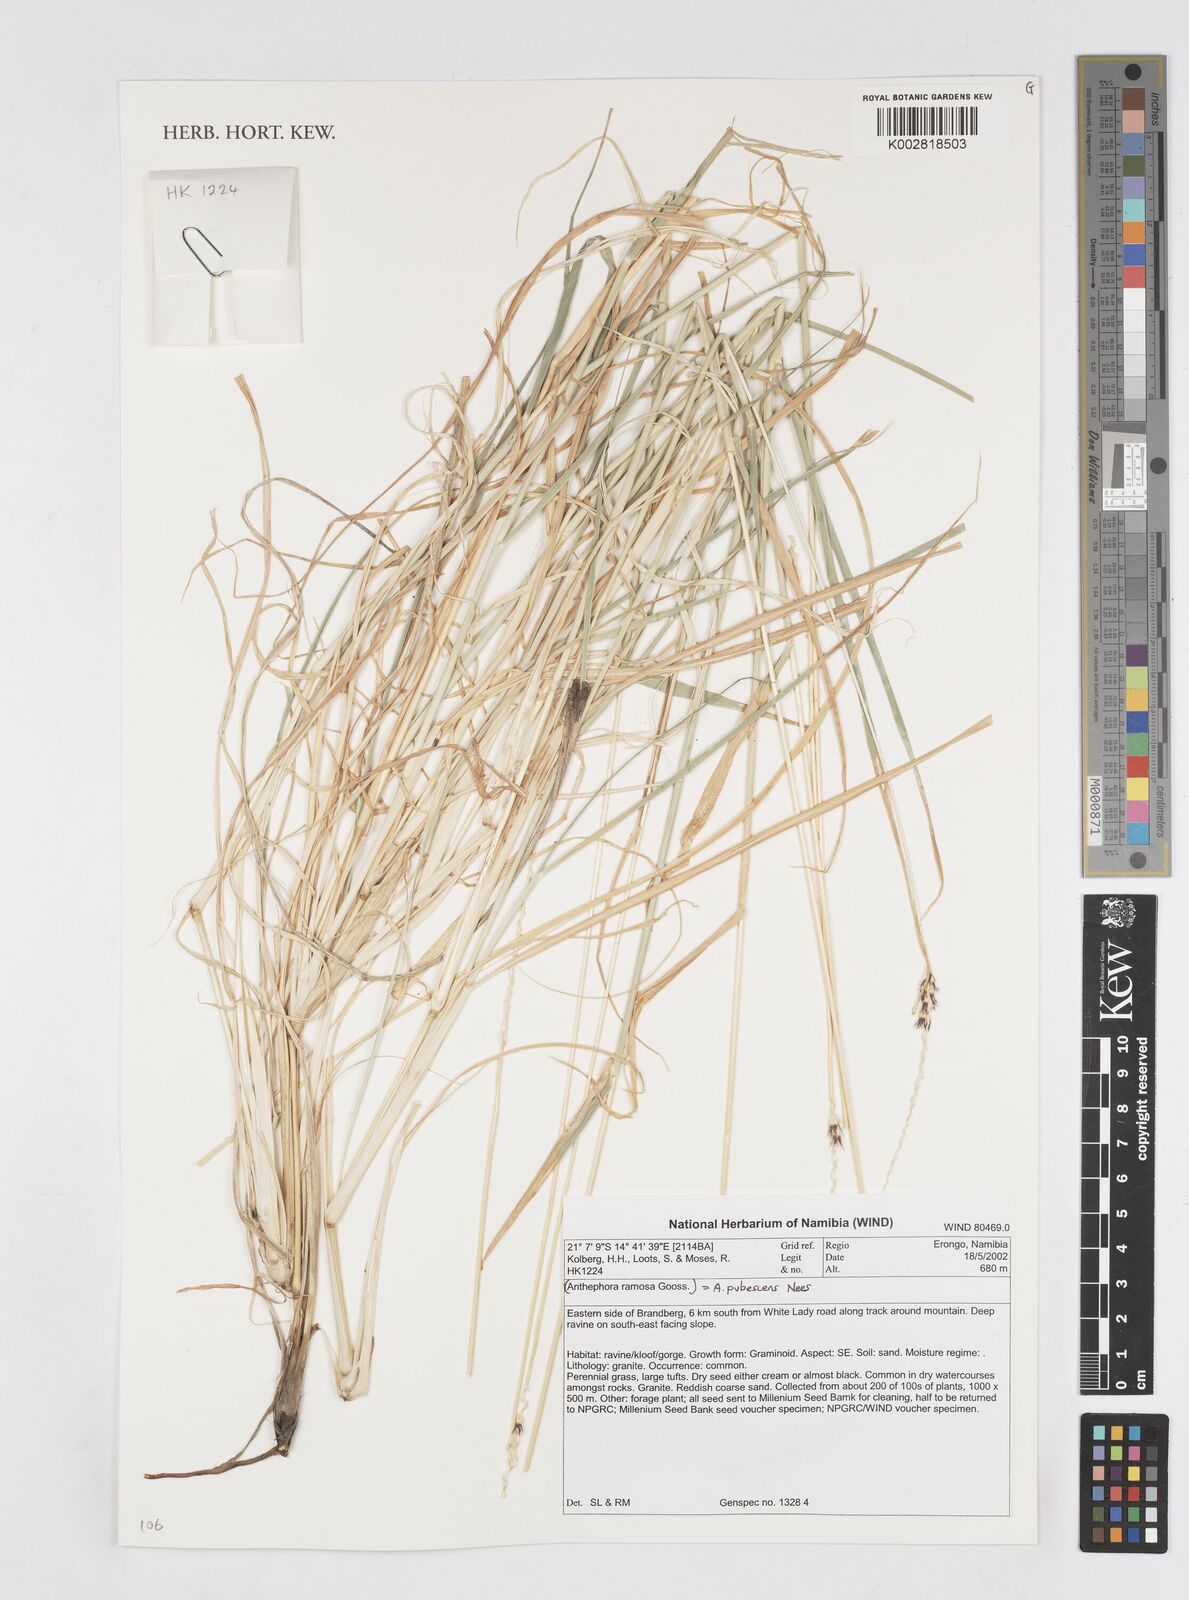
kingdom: Plantae
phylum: Tracheophyta
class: Liliopsida
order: Poales
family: Poaceae
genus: Anthephora
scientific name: Anthephora pubescens
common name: Wool grass
